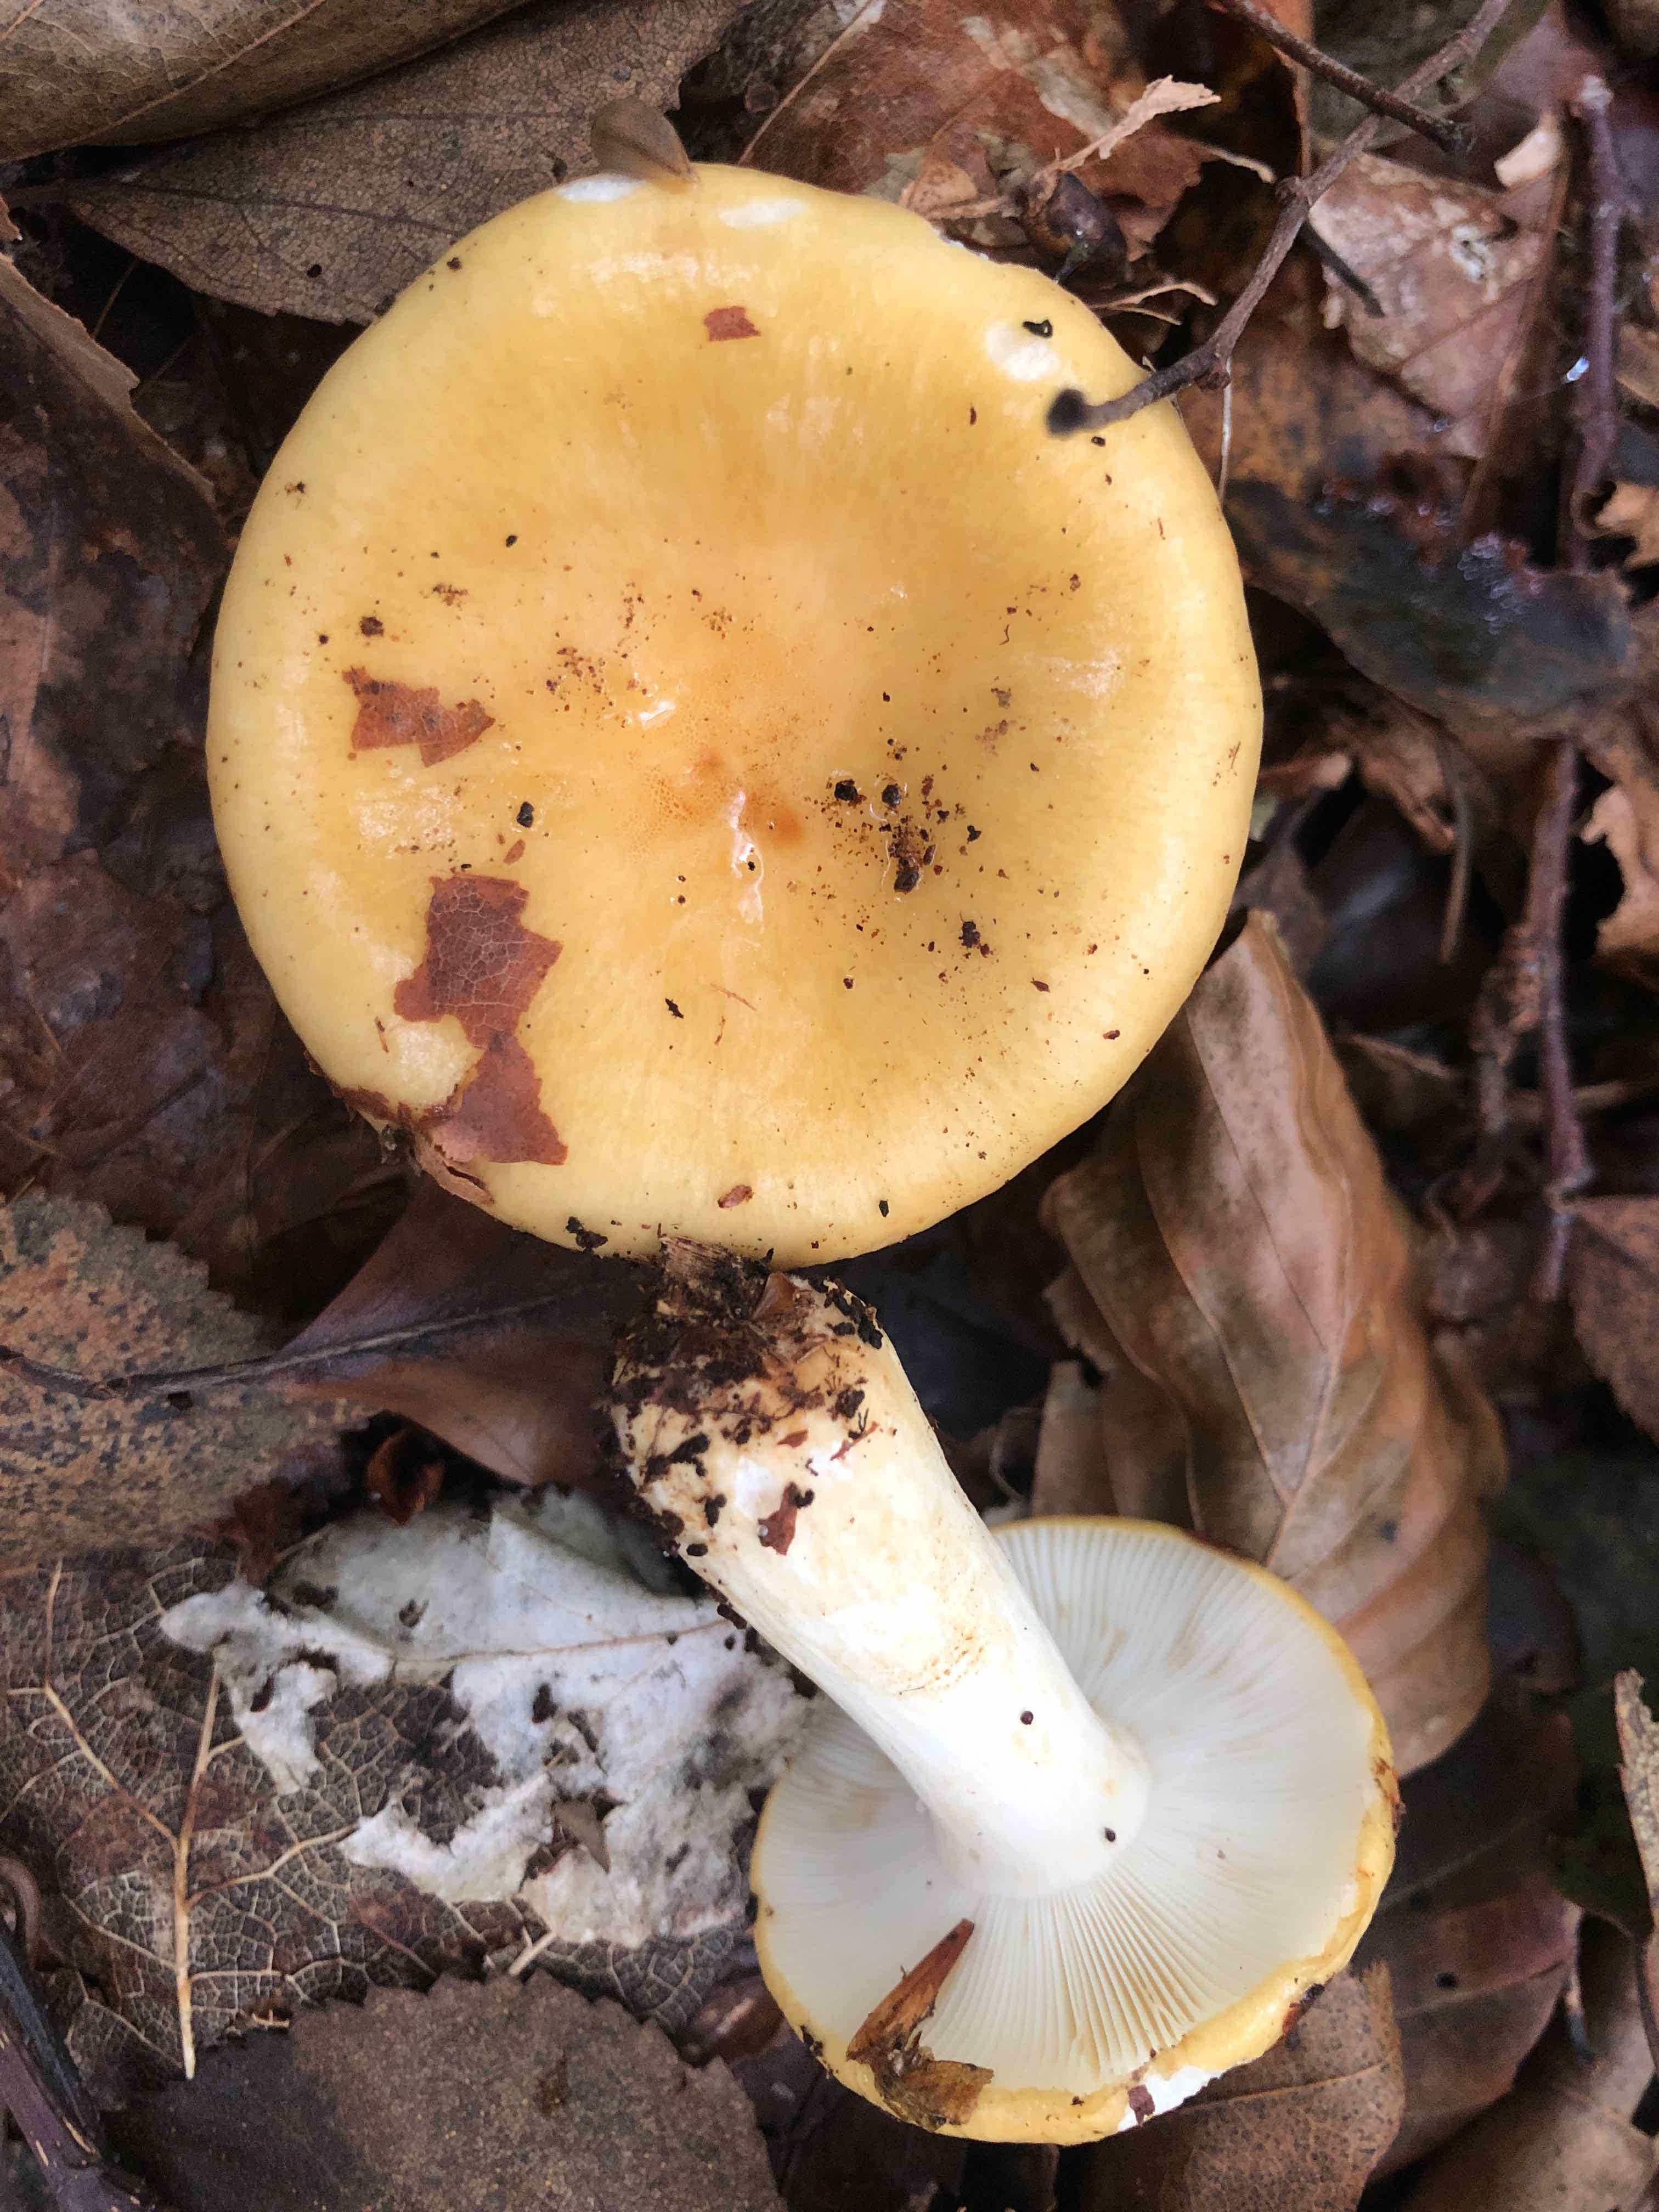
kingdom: Fungi
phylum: Basidiomycota
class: Agaricomycetes
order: Russulales
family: Russulaceae
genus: Russula
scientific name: Russula ochroleuca
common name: okkergul skørhat
